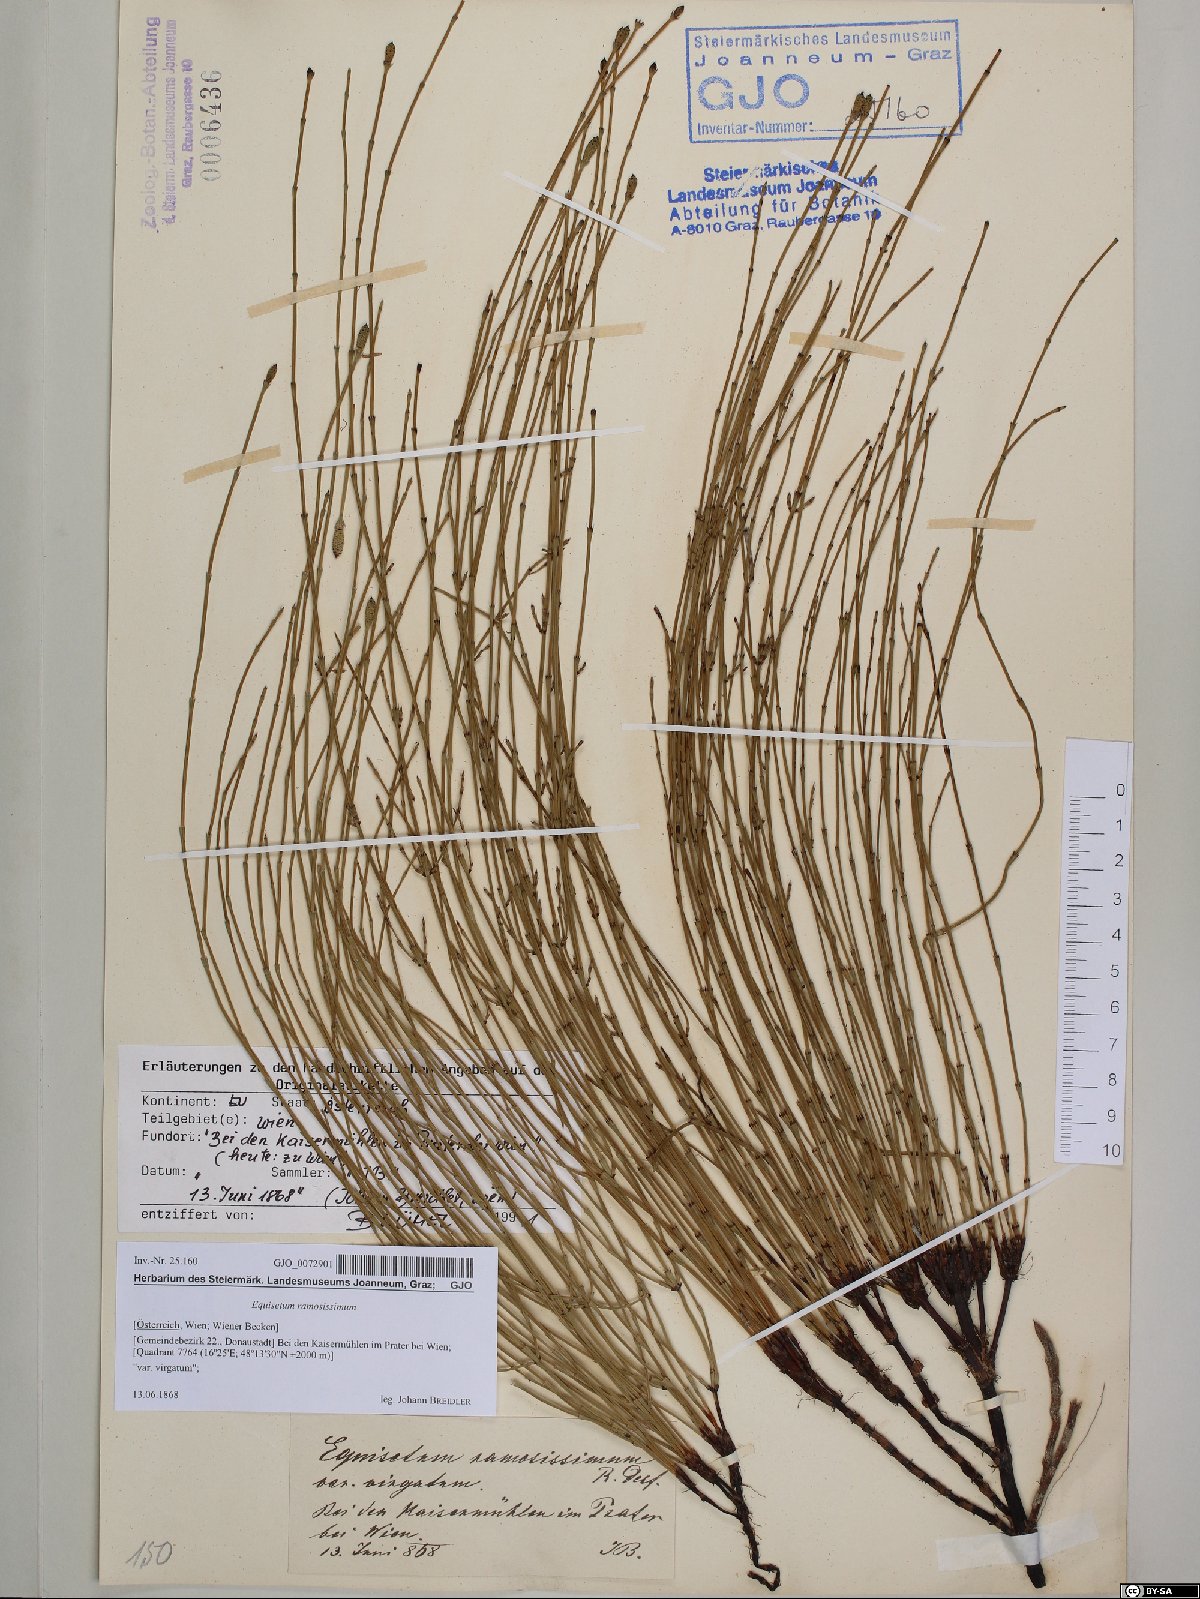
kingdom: Plantae
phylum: Tracheophyta
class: Polypodiopsida
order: Equisetales
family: Equisetaceae
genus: Equisetum
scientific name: Equisetum ramosissimum
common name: Branched horsetail
